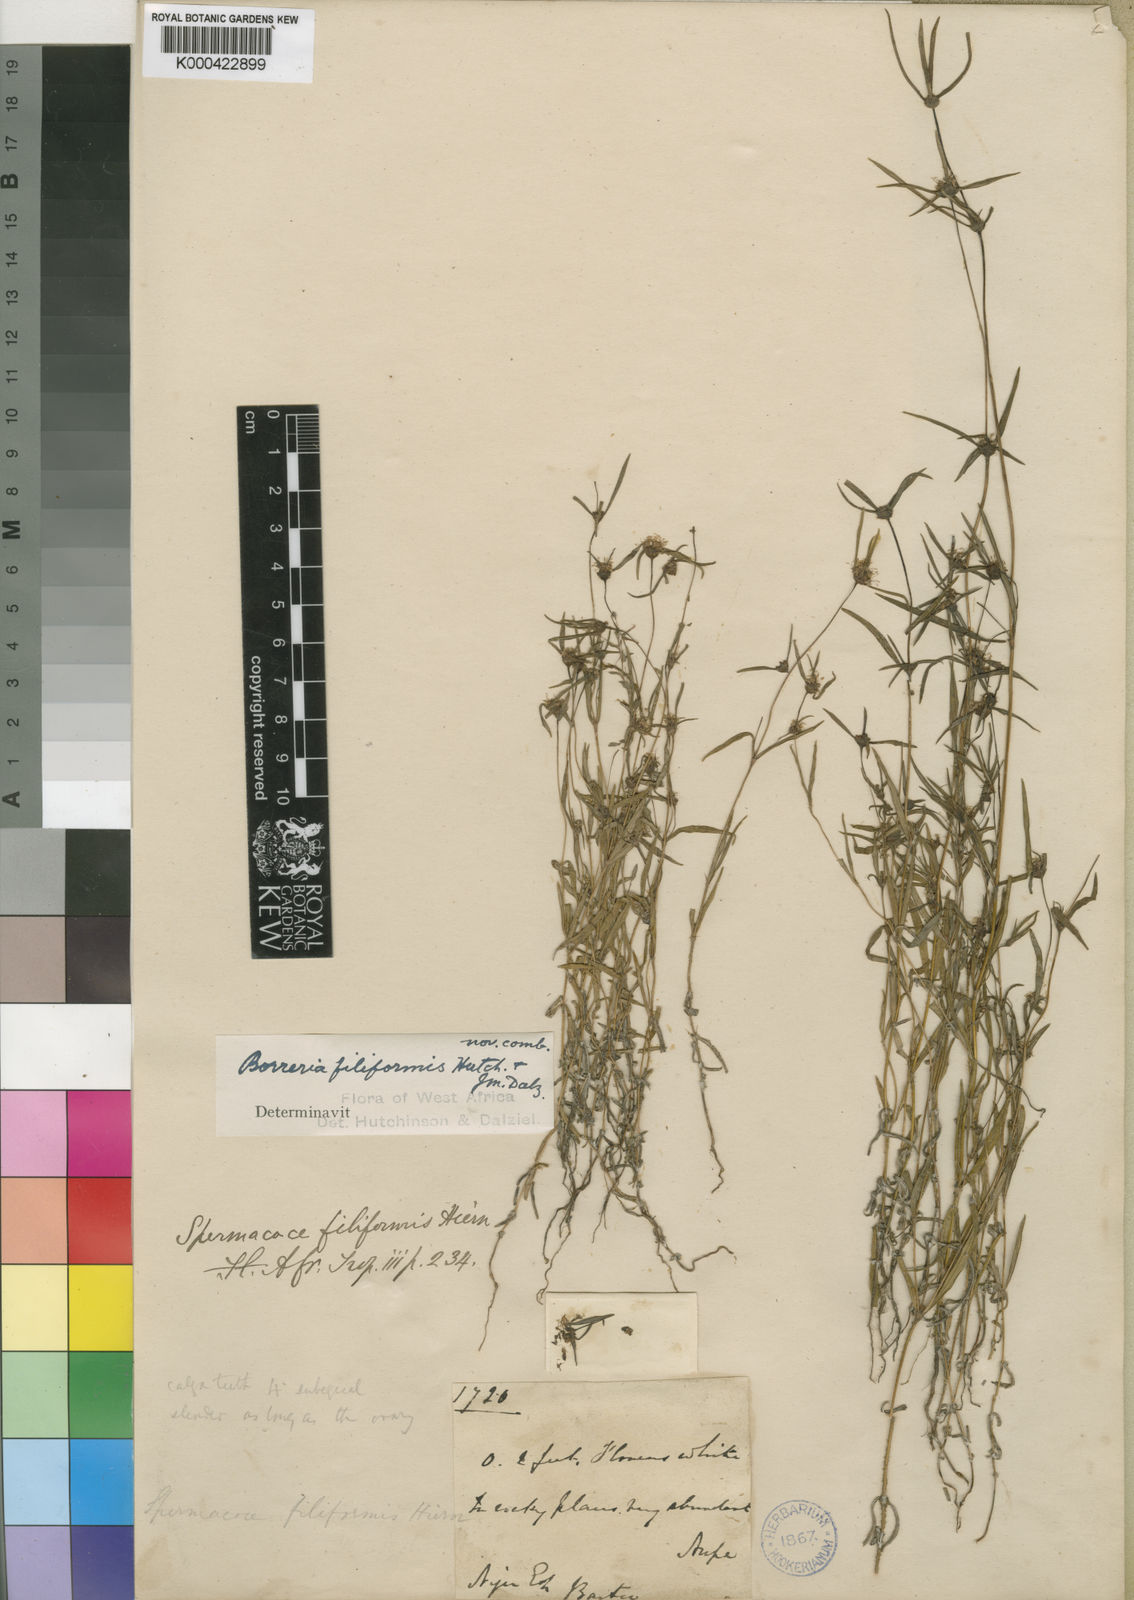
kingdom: Plantae
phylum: Tracheophyta
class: Magnoliopsida
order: Gentianales
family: Rubiaceae
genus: Spermacoce
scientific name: Spermacoce filiformis
